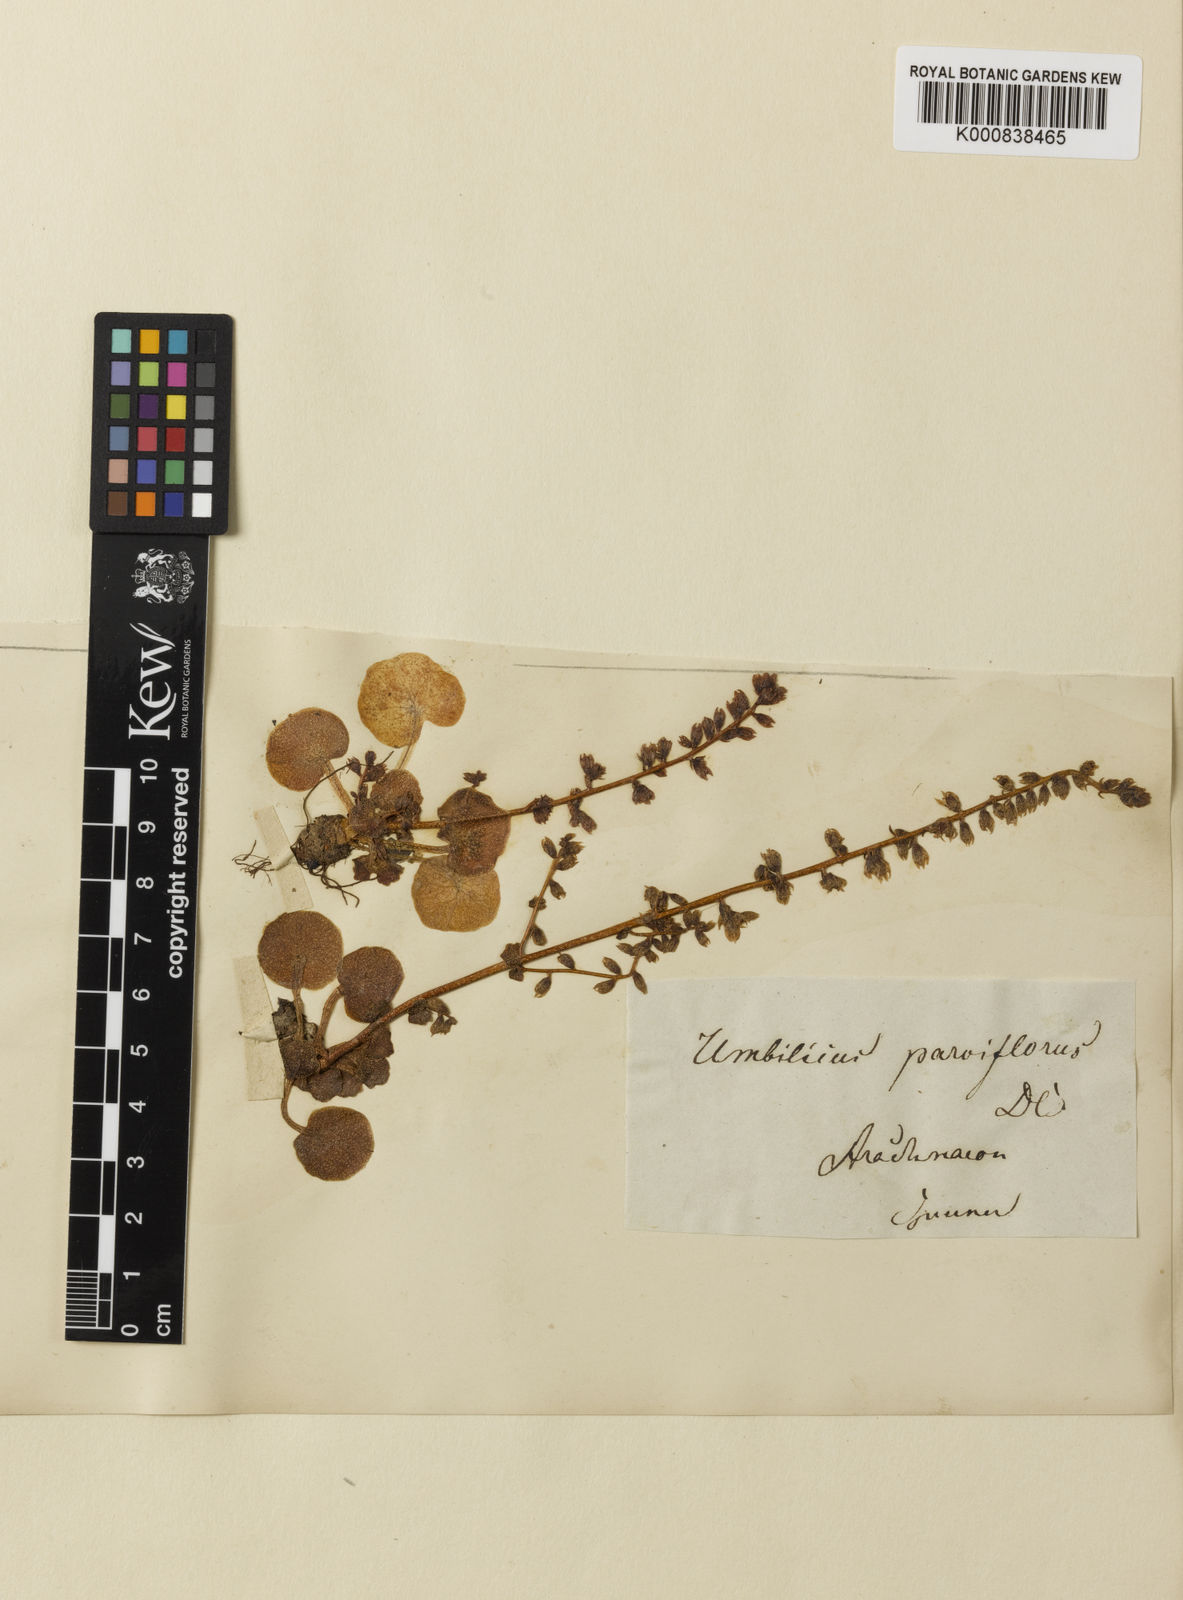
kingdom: Plantae
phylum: Tracheophyta
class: Magnoliopsida
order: Saxifragales
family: Crassulaceae
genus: Umbilicus
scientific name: Umbilicus parviflorus
